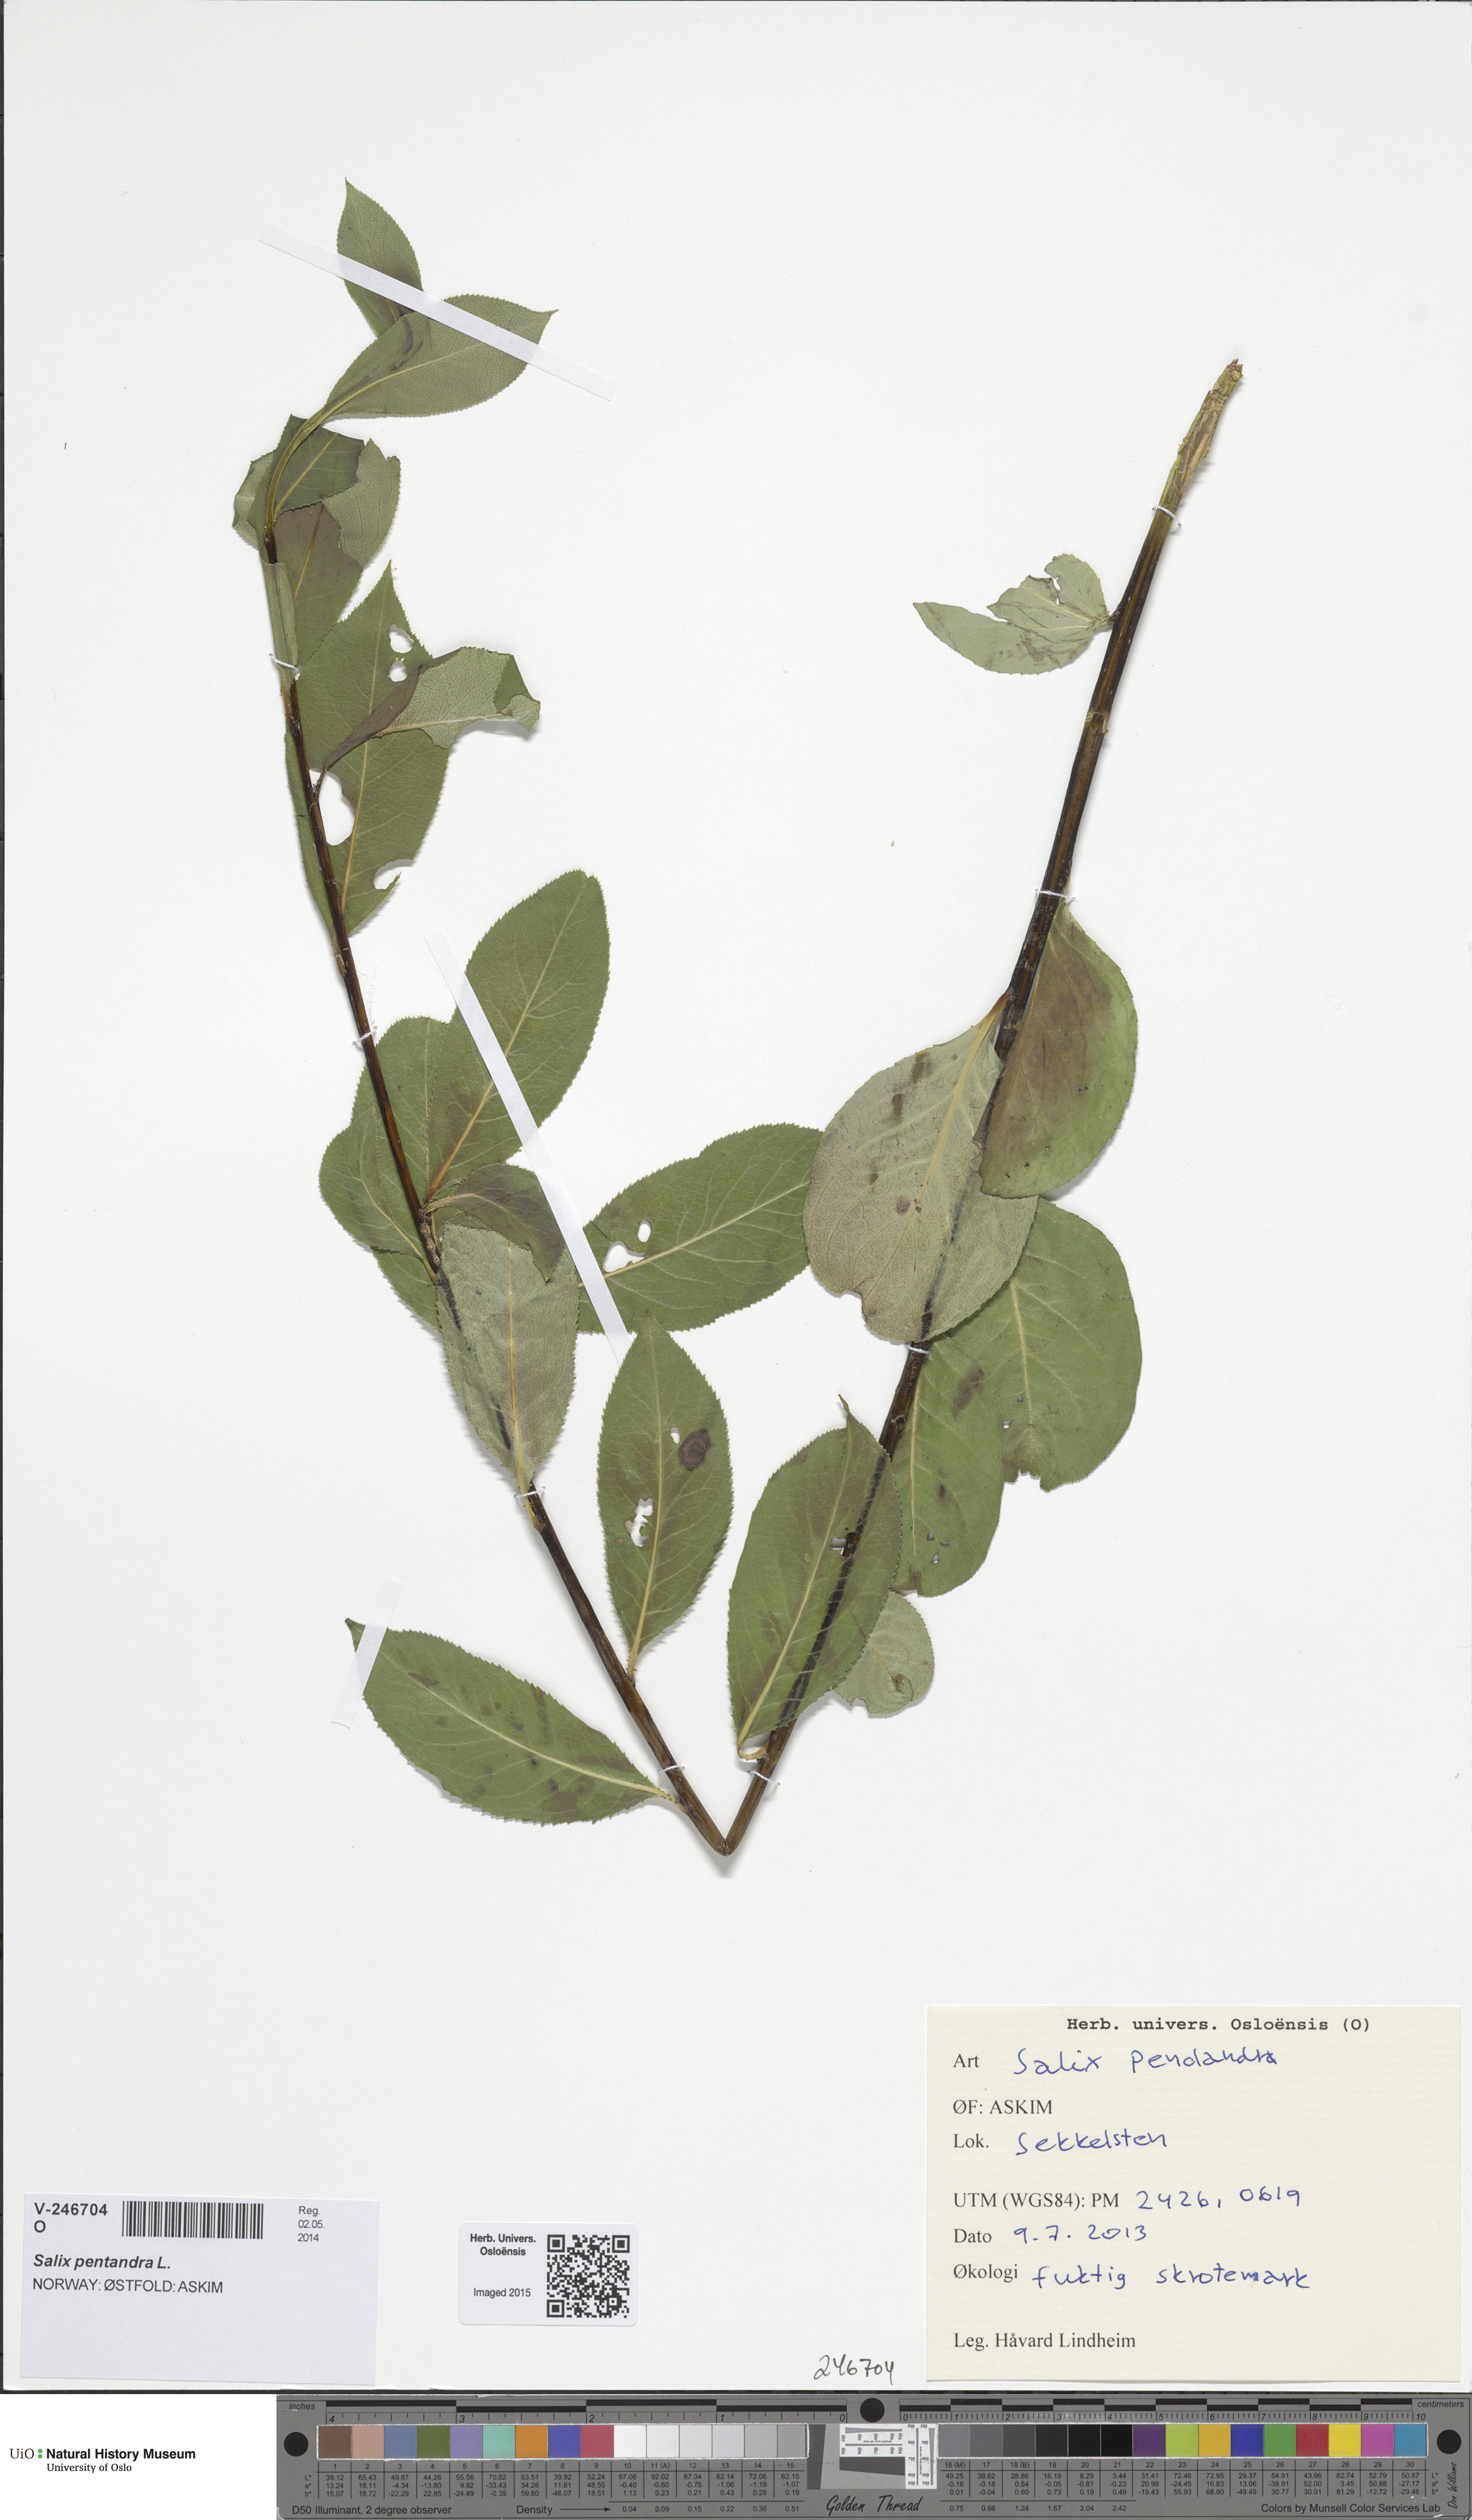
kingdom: Plantae
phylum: Tracheophyta
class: Magnoliopsida
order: Malpighiales
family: Salicaceae
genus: Salix
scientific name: Salix pentandra
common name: Bay willow
